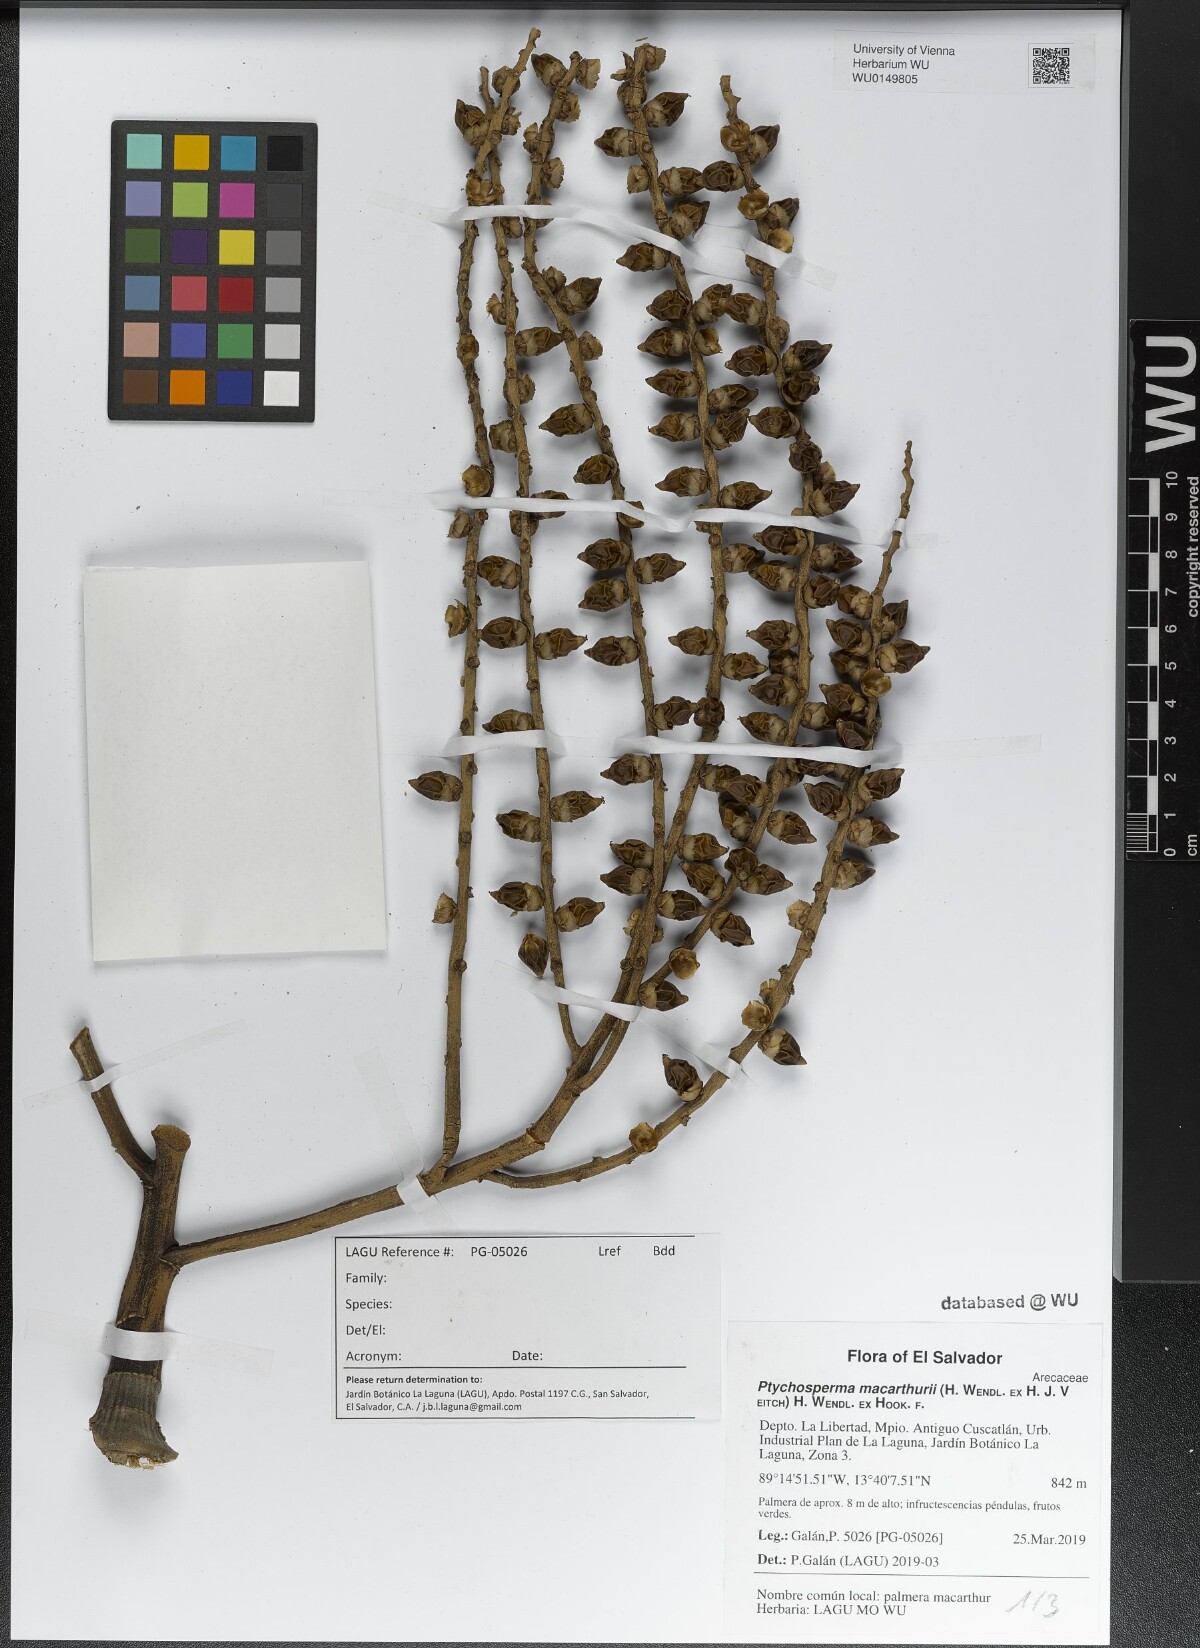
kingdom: Plantae
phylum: Tracheophyta
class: Liliopsida
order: Arecales
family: Arecaceae
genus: Ptychosperma
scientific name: Ptychosperma macarthurii
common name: Macarthur palm
